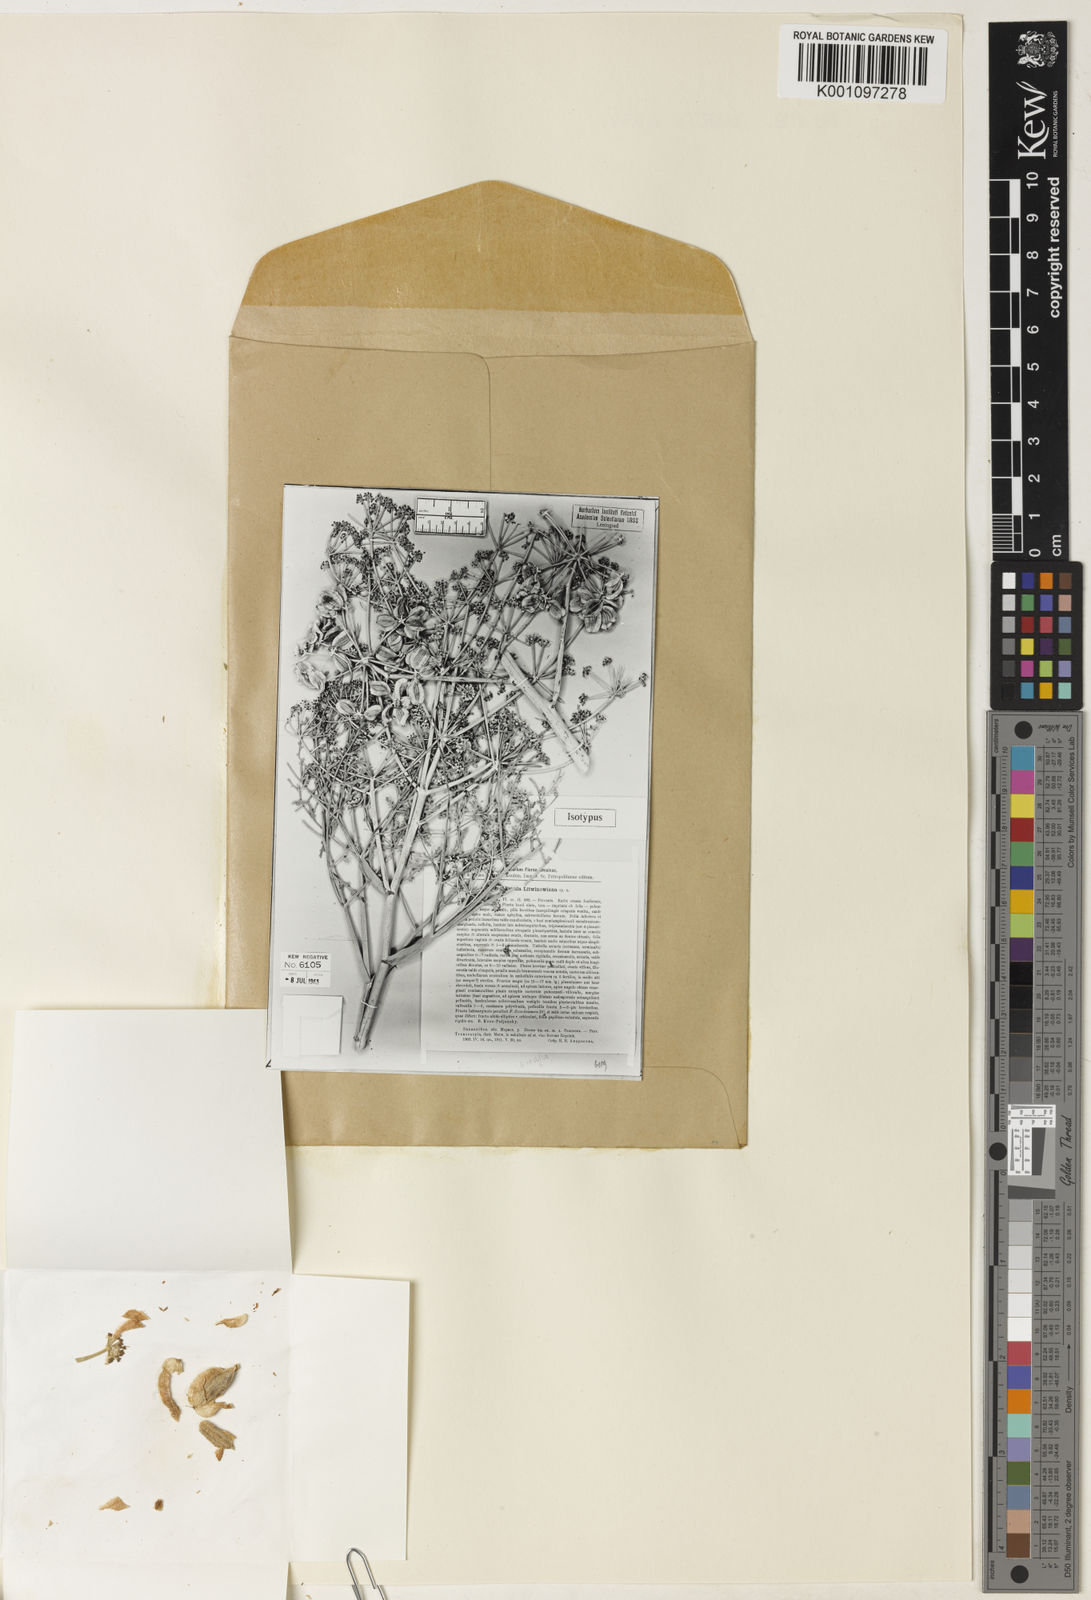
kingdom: Plantae
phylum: Tracheophyta
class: Magnoliopsida
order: Apiales
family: Apiaceae
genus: Ferula
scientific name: Ferula litwinowiana
